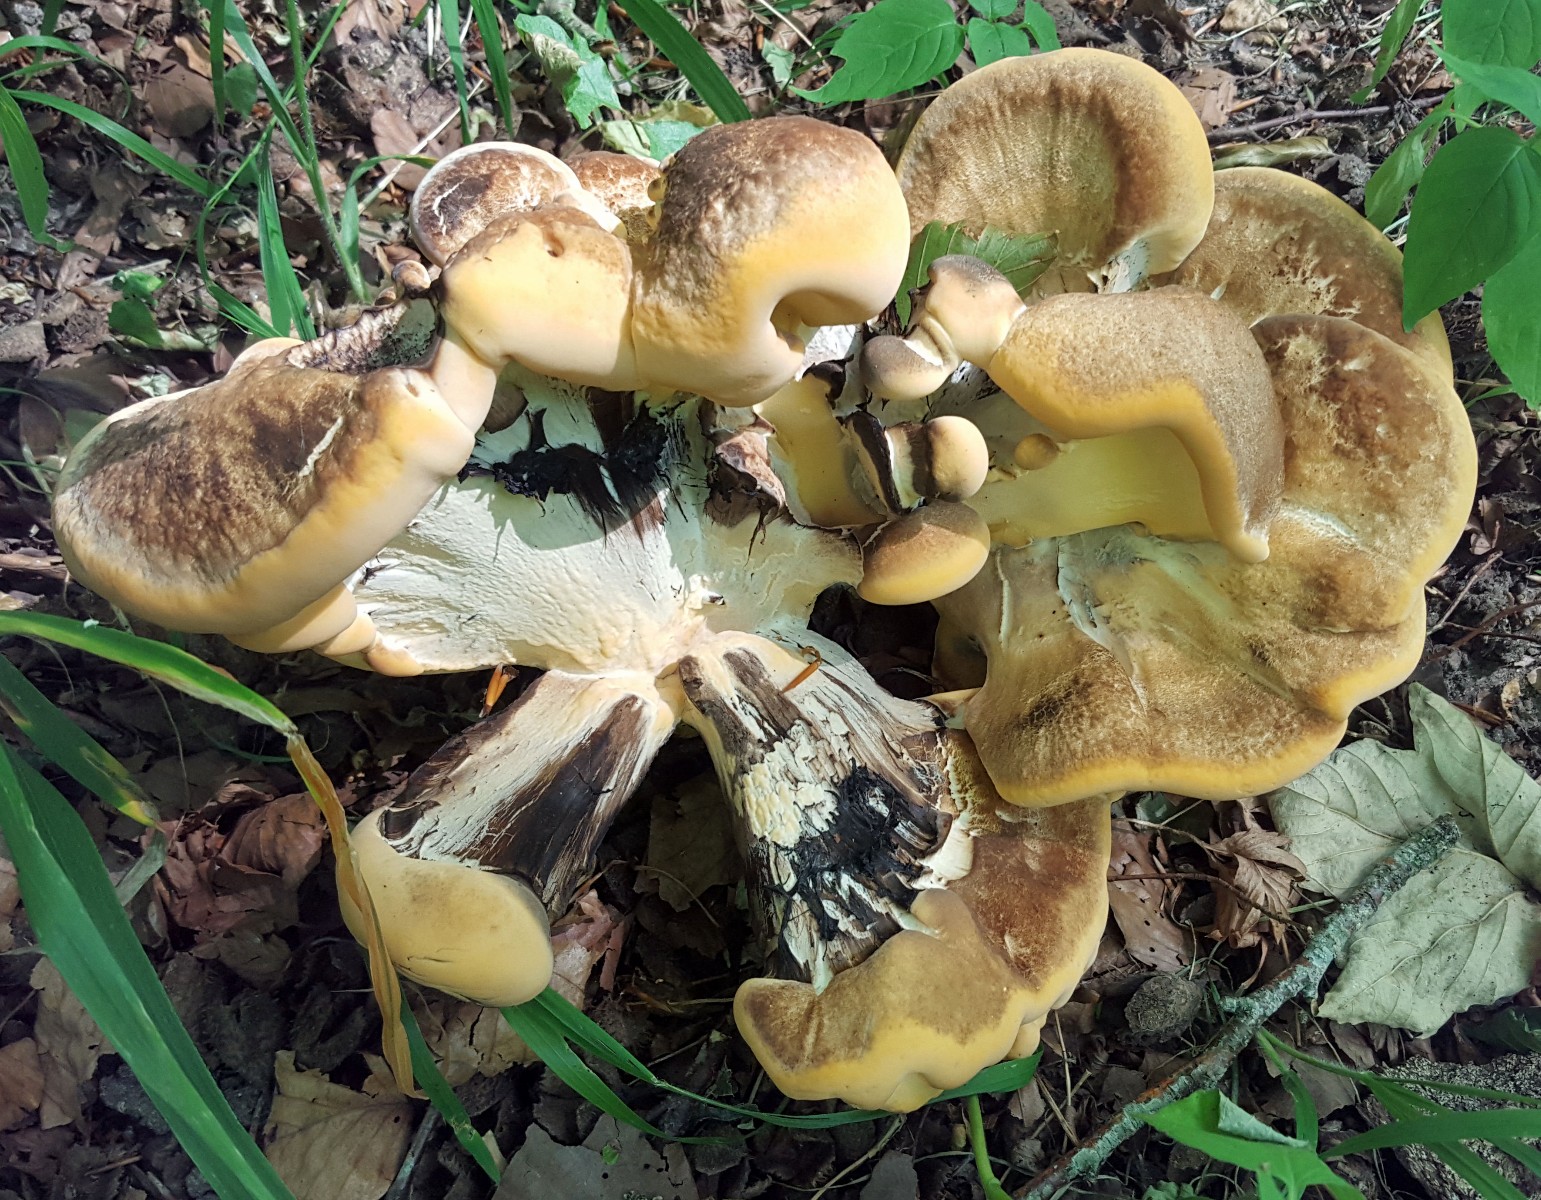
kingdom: Fungi
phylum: Basidiomycota
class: Agaricomycetes
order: Polyporales
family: Meripilaceae
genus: Meripilus
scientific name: Meripilus giganteus
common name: kæmpeporesvamp
